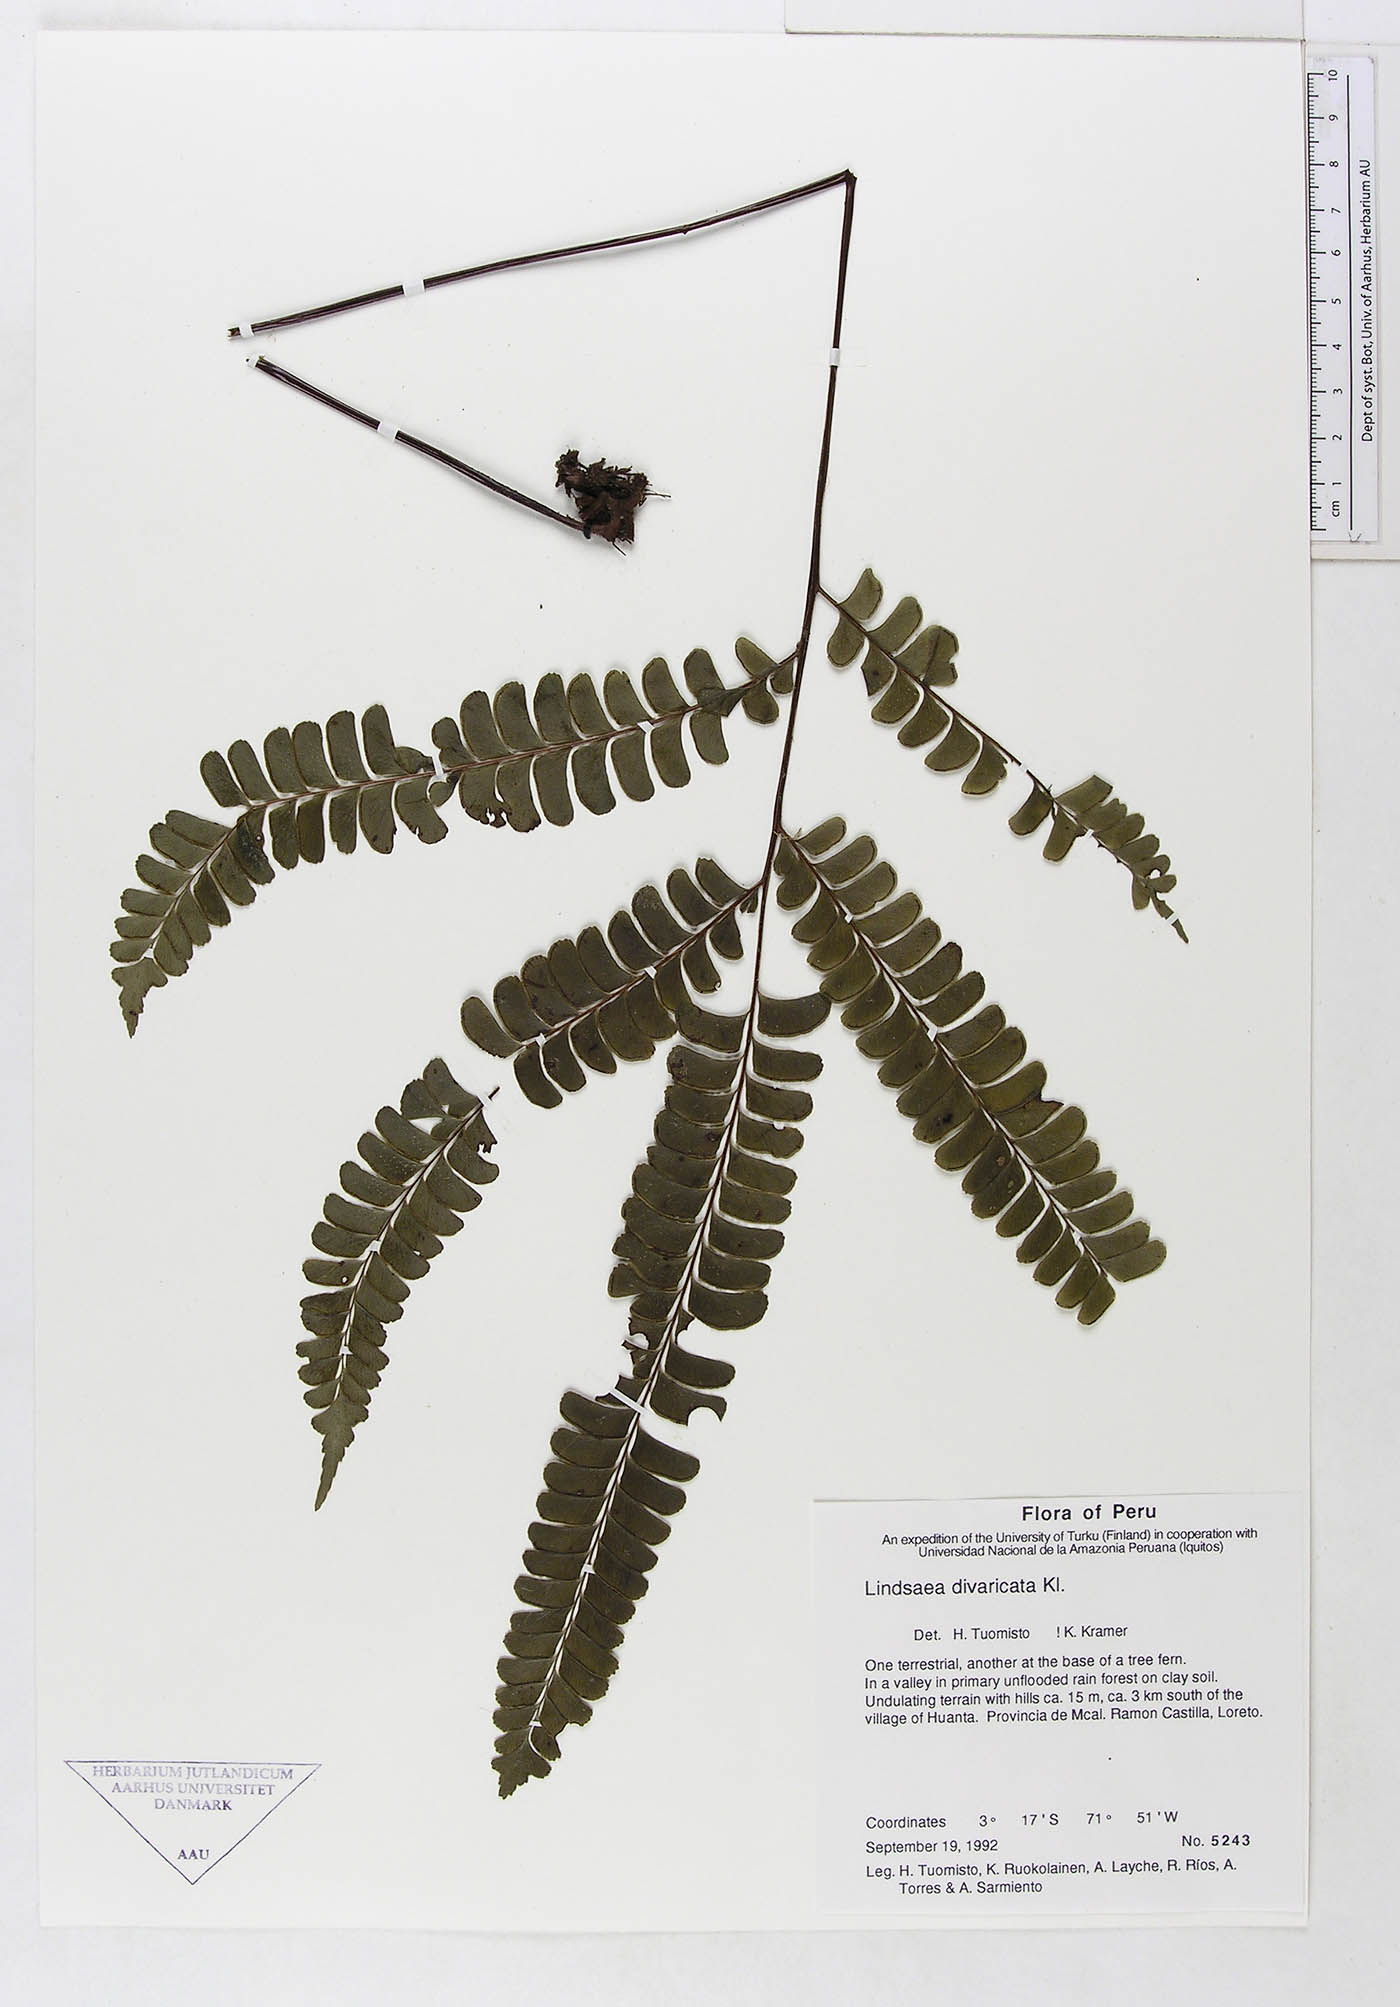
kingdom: Plantae
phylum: Tracheophyta
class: Polypodiopsida
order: Polypodiales
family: Lindsaeaceae
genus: Lindsaea
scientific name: Lindsaea divaricata
